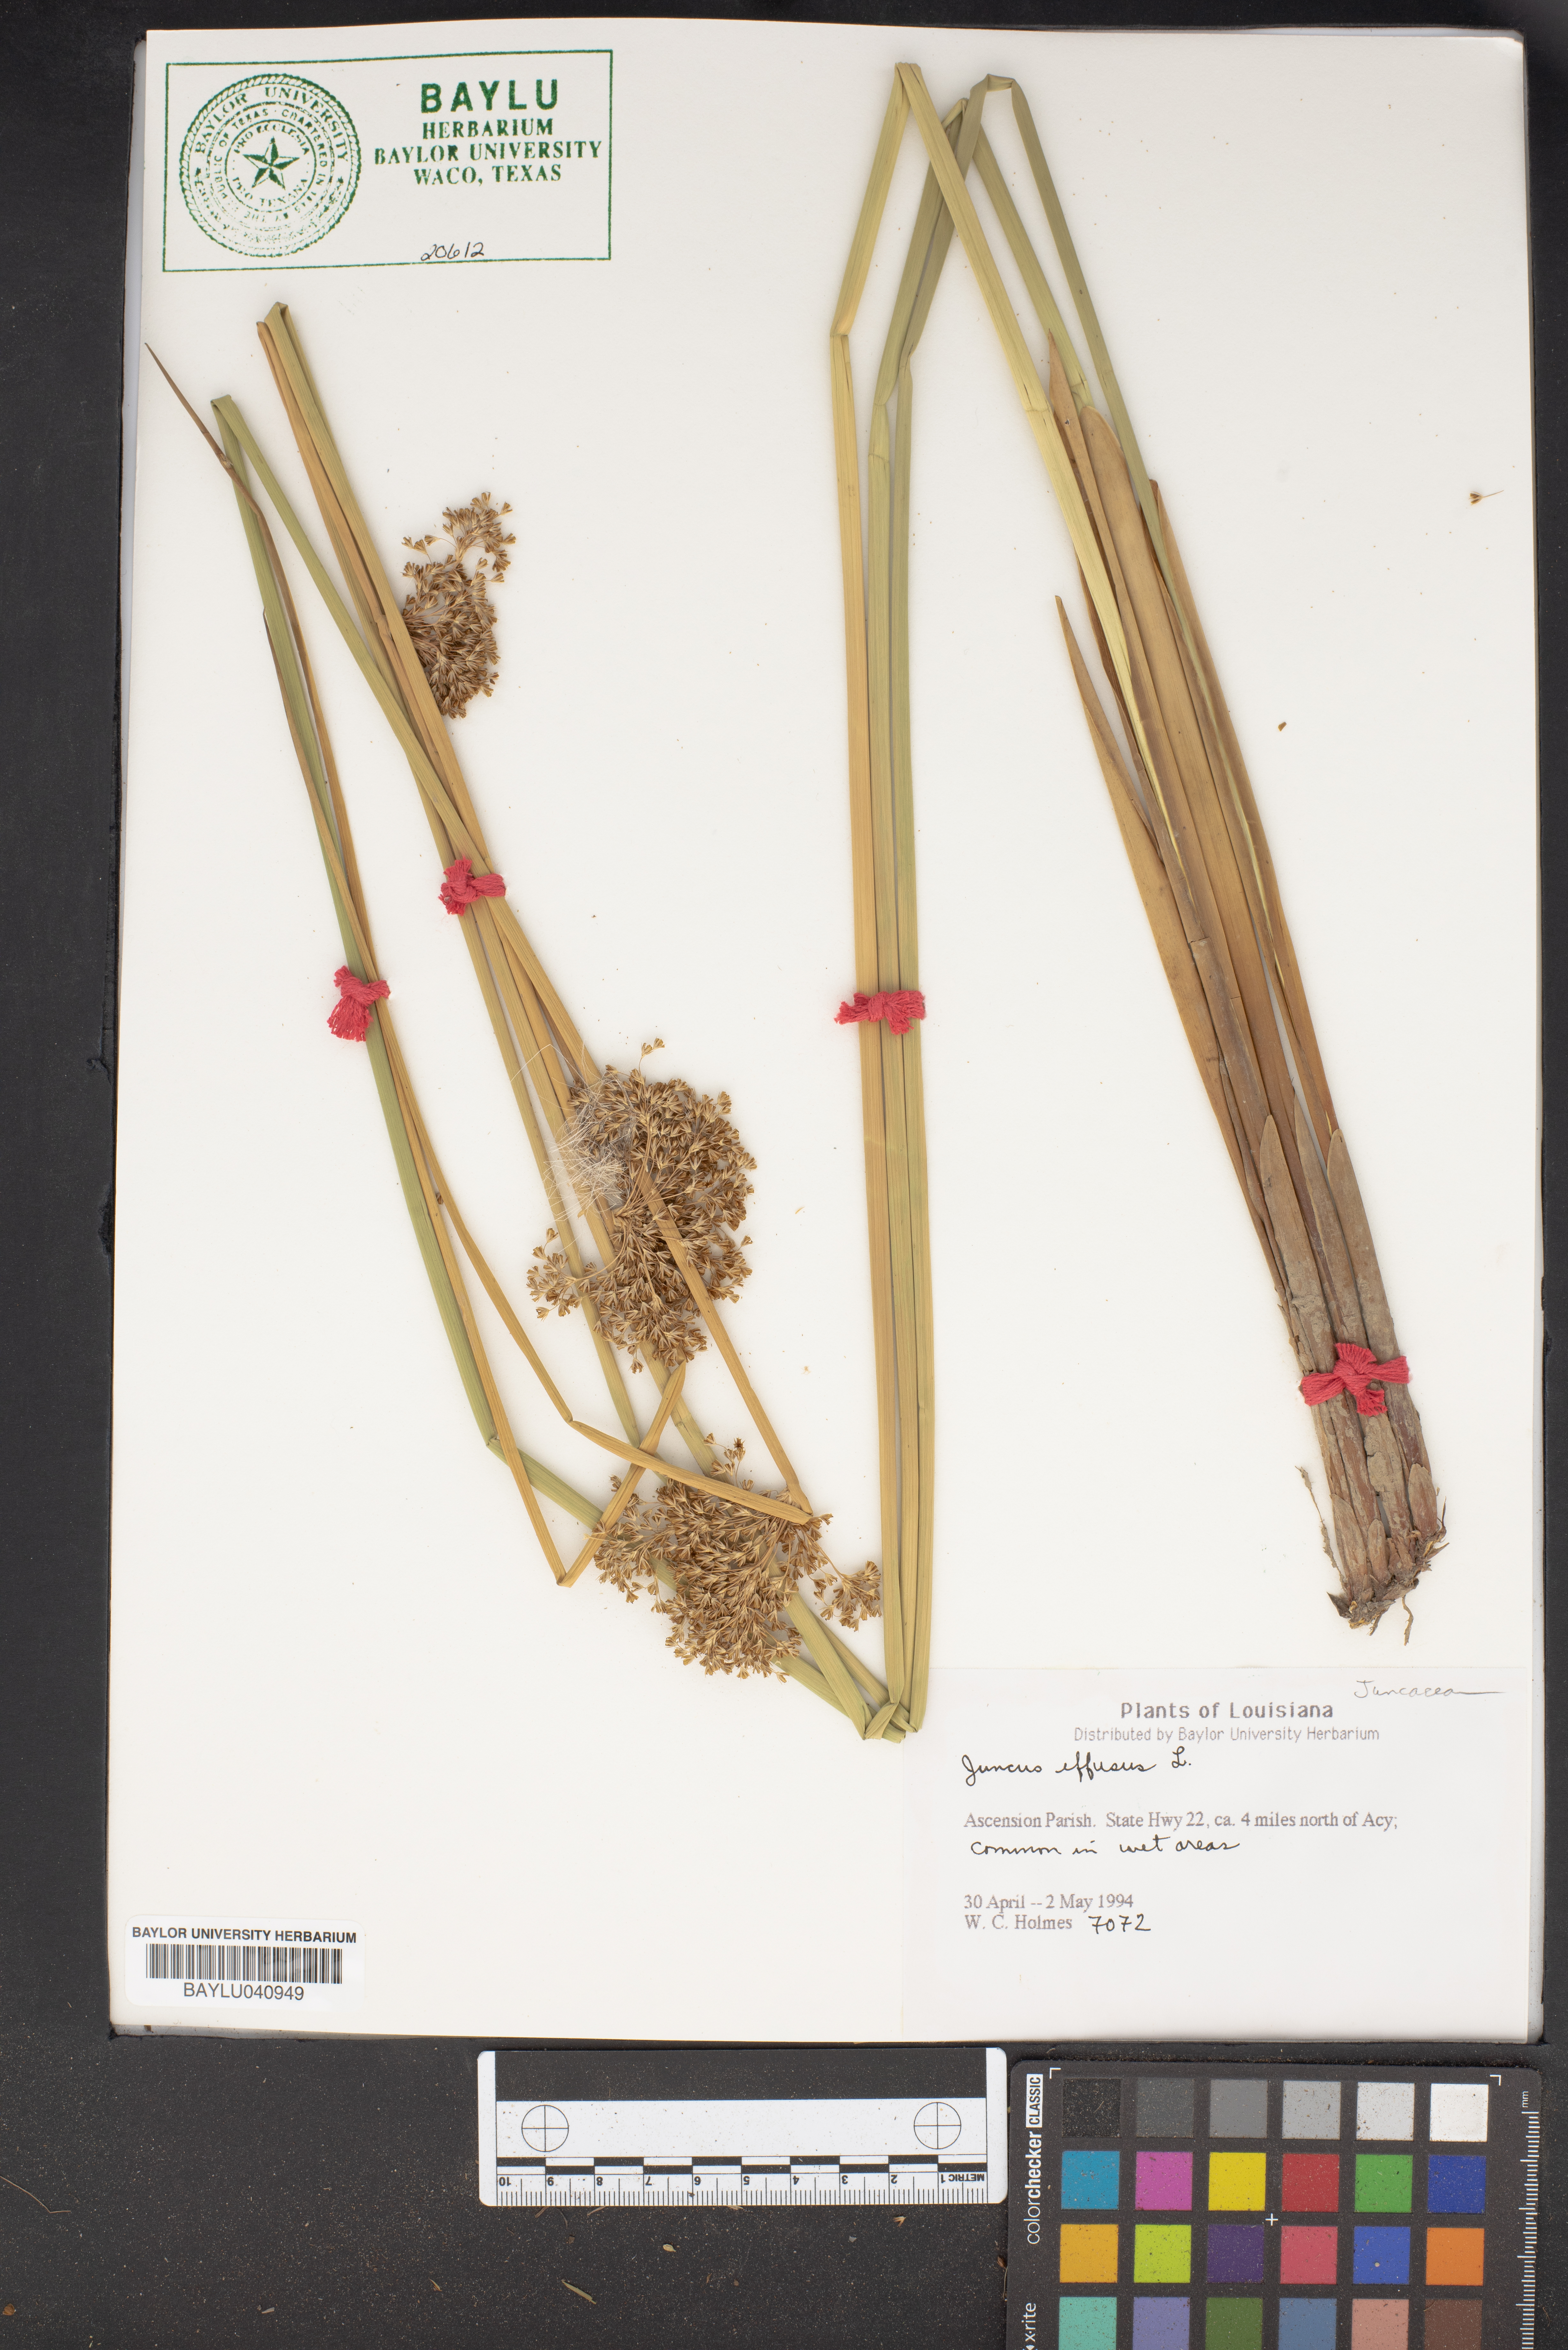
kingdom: Plantae
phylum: Tracheophyta
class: Liliopsida
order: Poales
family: Juncaceae
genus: Juncus
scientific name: Juncus effusus
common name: Soft rush
